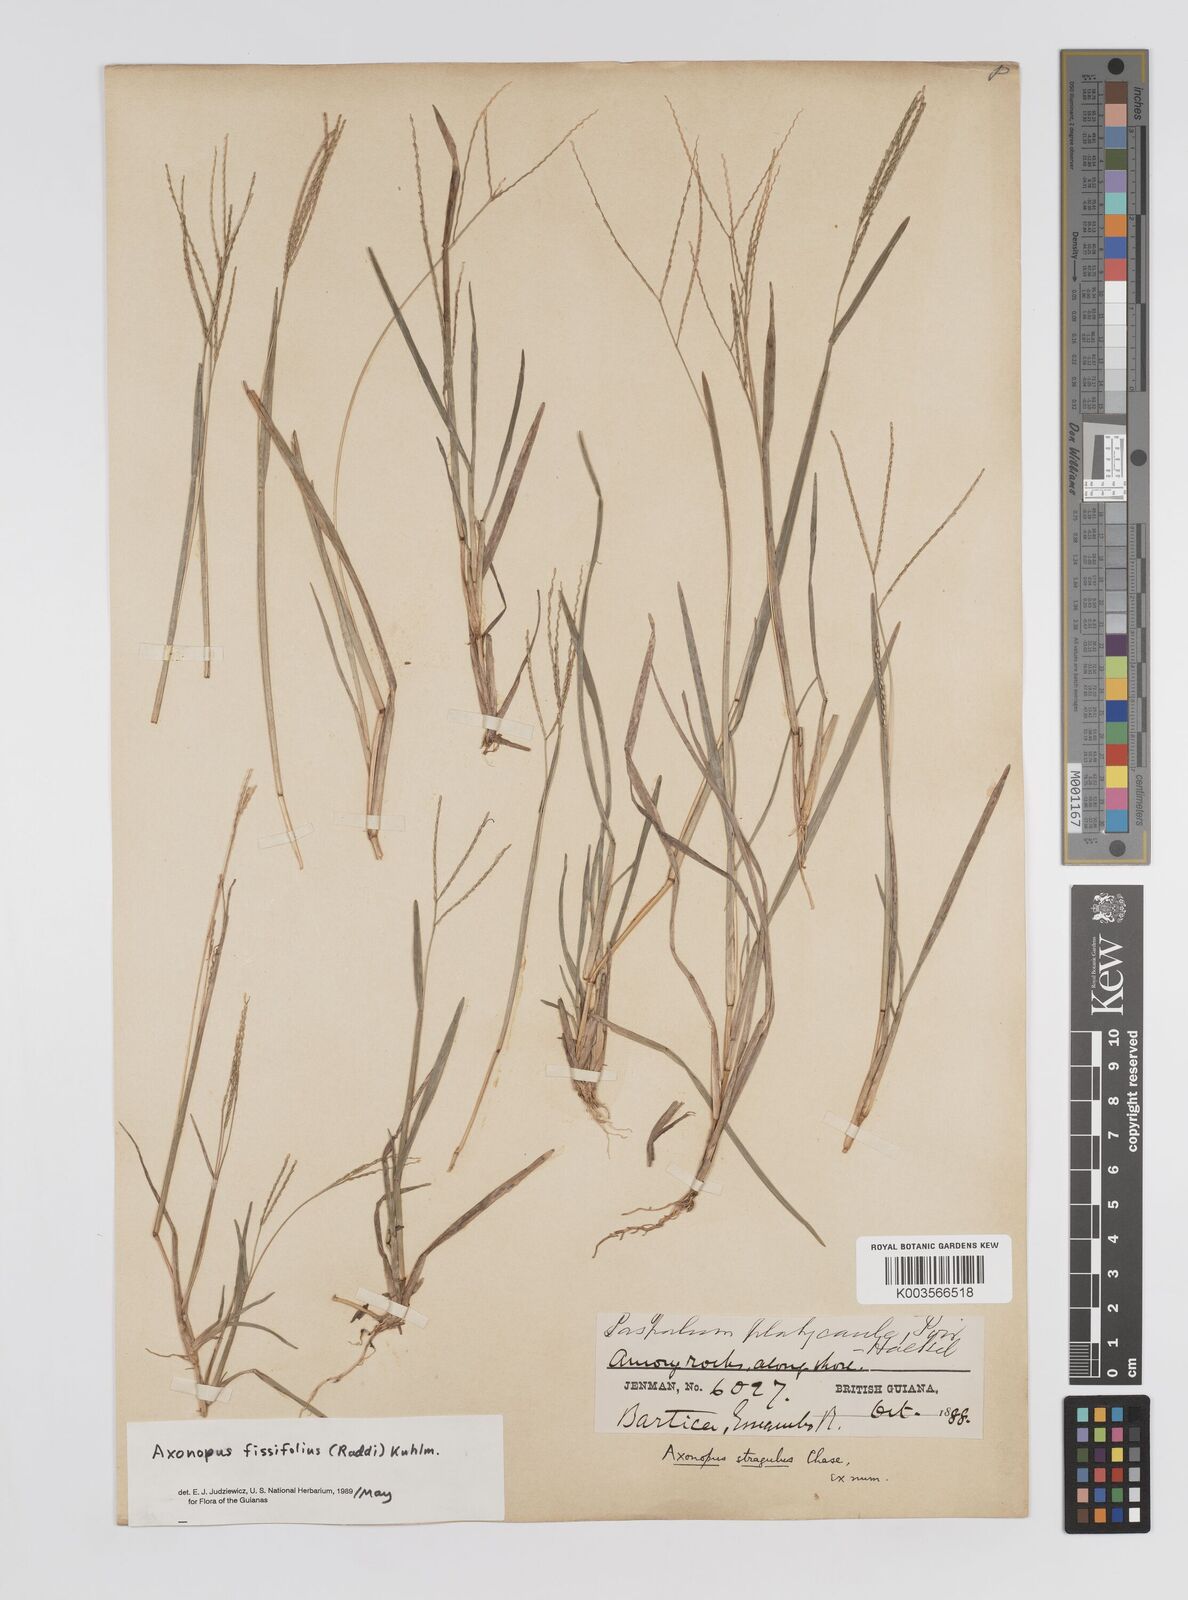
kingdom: Plantae
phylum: Tracheophyta
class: Liliopsida
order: Poales
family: Poaceae
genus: Axonopus
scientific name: Axonopus fissifolius
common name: Common carpetgrass
